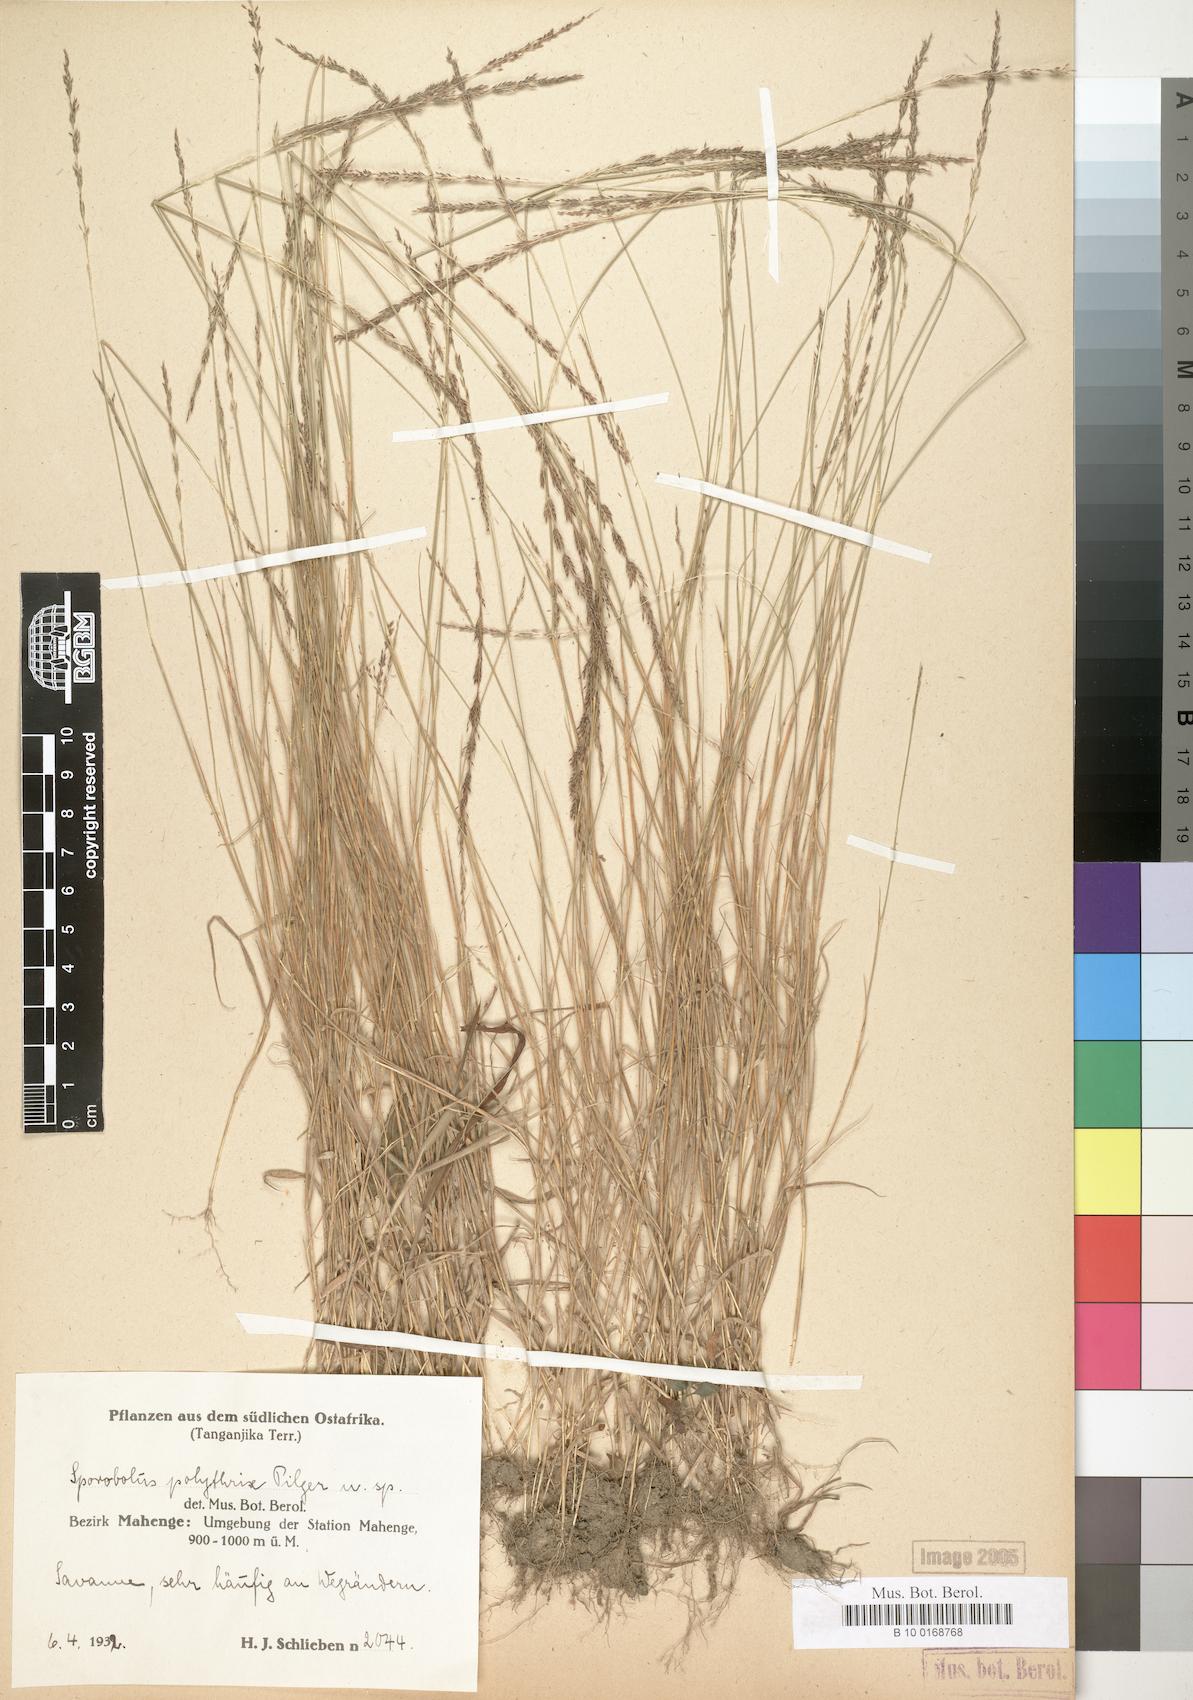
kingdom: Plantae
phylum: Tracheophyta
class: Liliopsida
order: Poales
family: Poaceae
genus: Sporobolus
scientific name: Sporobolus
